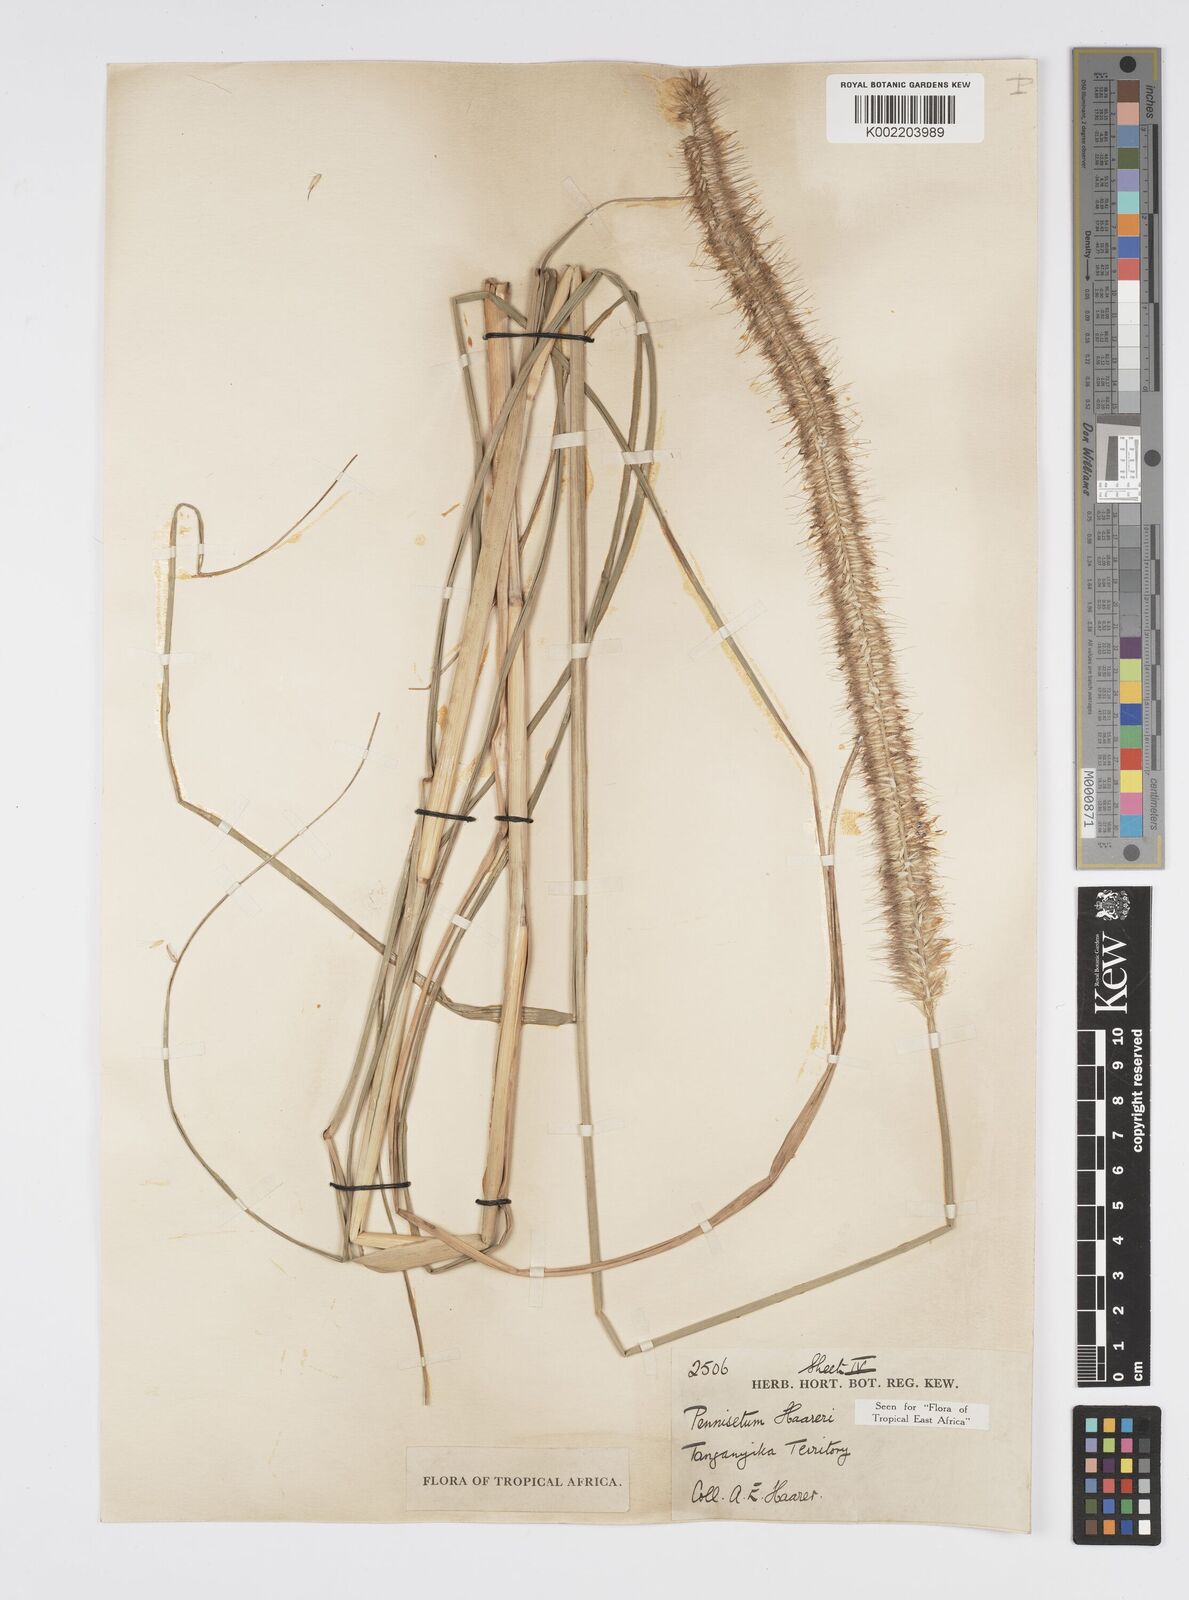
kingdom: Plantae
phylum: Tracheophyta
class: Liliopsida
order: Poales
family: Poaceae
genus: Cenchrus
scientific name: Cenchrus caudatus
